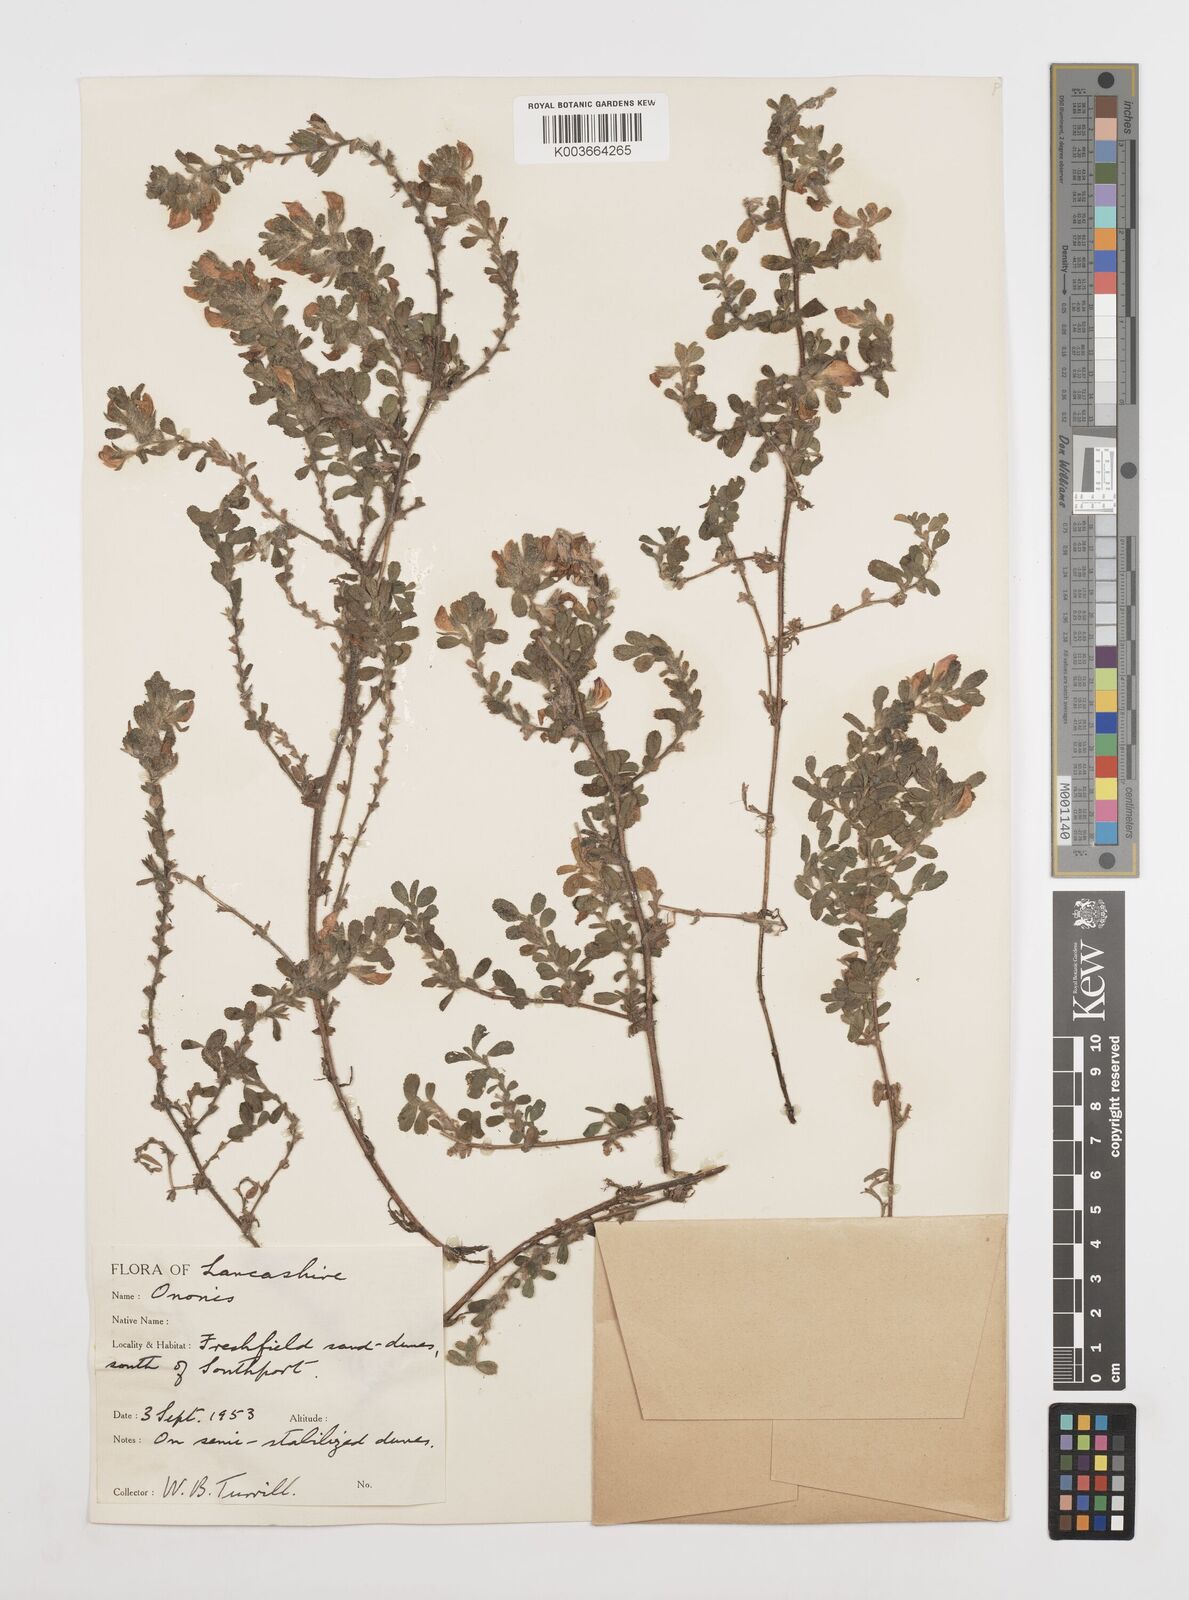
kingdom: Plantae
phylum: Tracheophyta
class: Magnoliopsida
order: Fabales
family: Fabaceae
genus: Ononis
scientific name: Ononis spinosa
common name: Spiny restharrow
